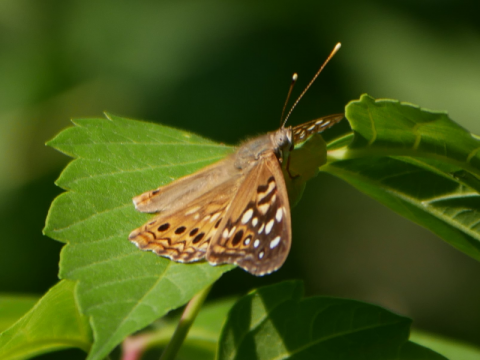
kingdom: Animalia
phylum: Arthropoda
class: Insecta
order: Lepidoptera
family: Nymphalidae
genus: Asterocampa
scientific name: Asterocampa celtis
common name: Hackberry Emperor
